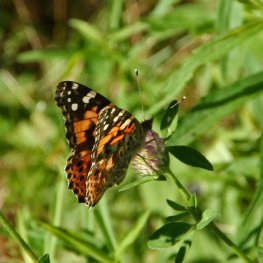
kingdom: Animalia
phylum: Arthropoda
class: Insecta
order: Lepidoptera
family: Nymphalidae
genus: Vanessa
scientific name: Vanessa cardui
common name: Painted Lady
